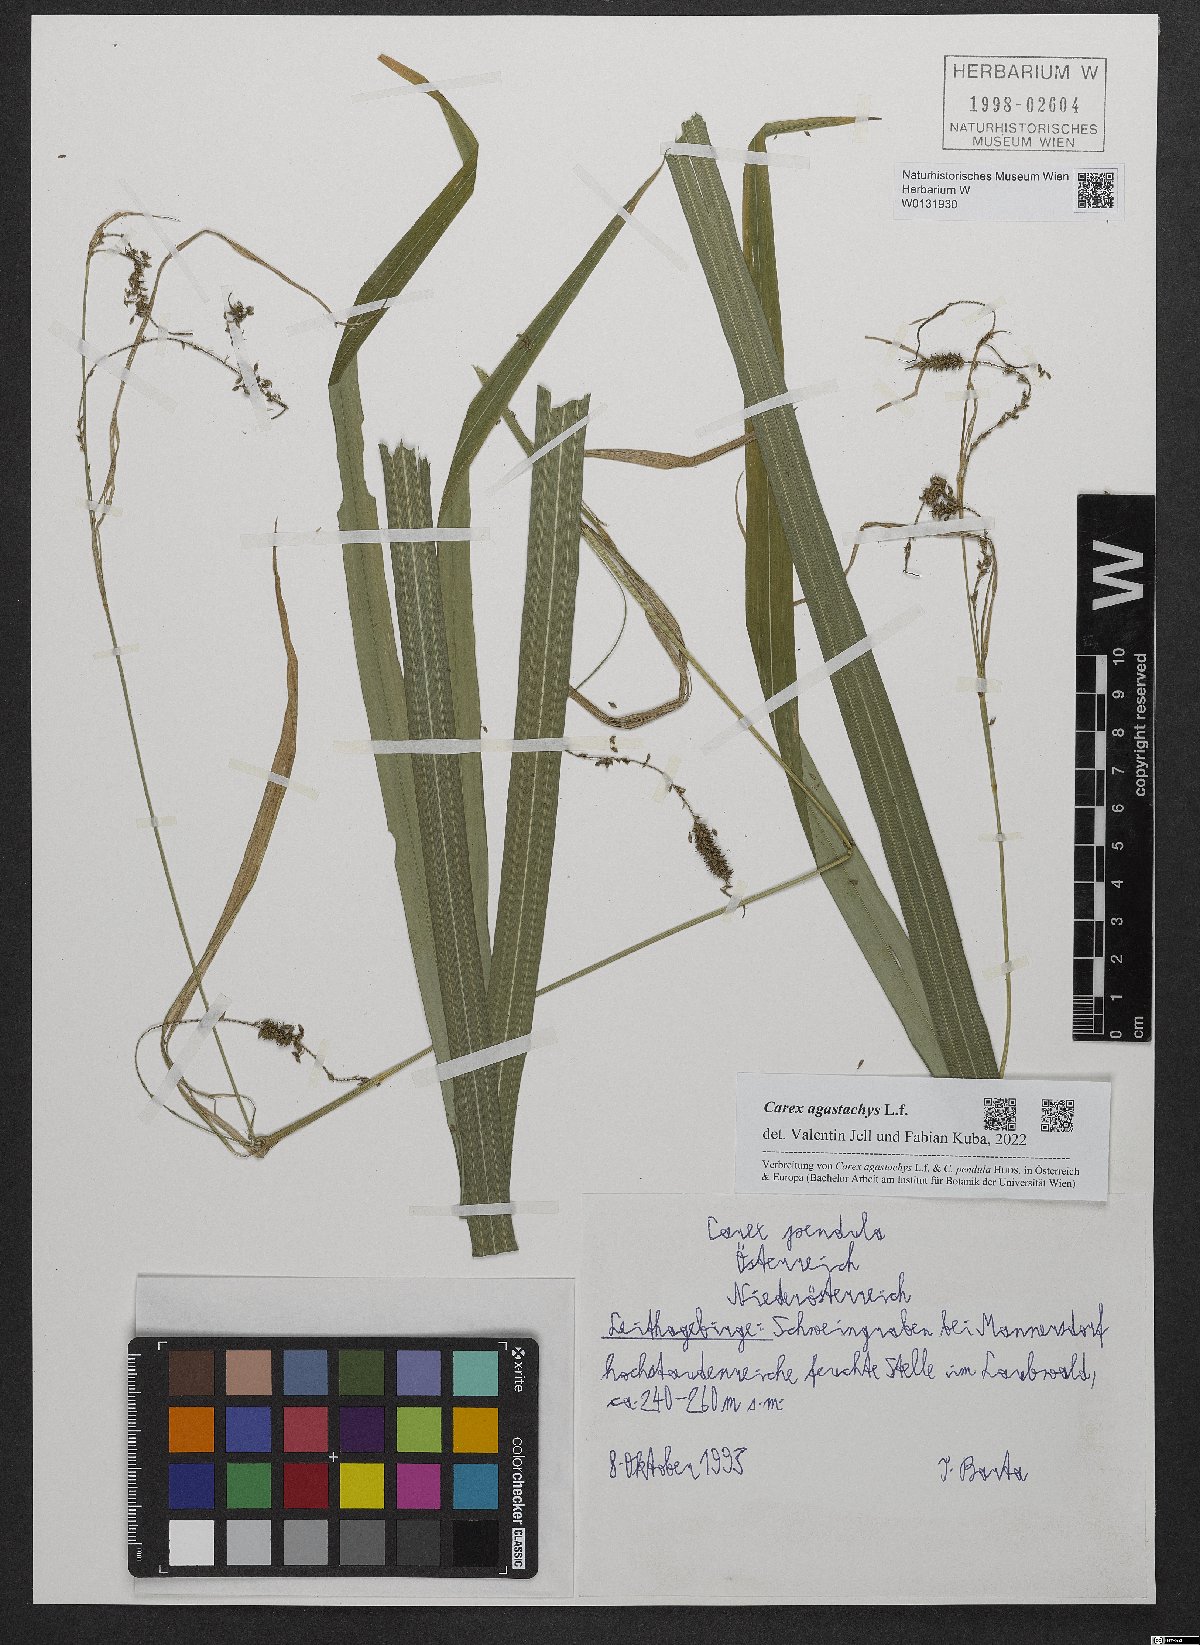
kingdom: Plantae
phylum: Tracheophyta
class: Liliopsida
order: Poales
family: Cyperaceae
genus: Carex
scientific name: Carex agastachys
